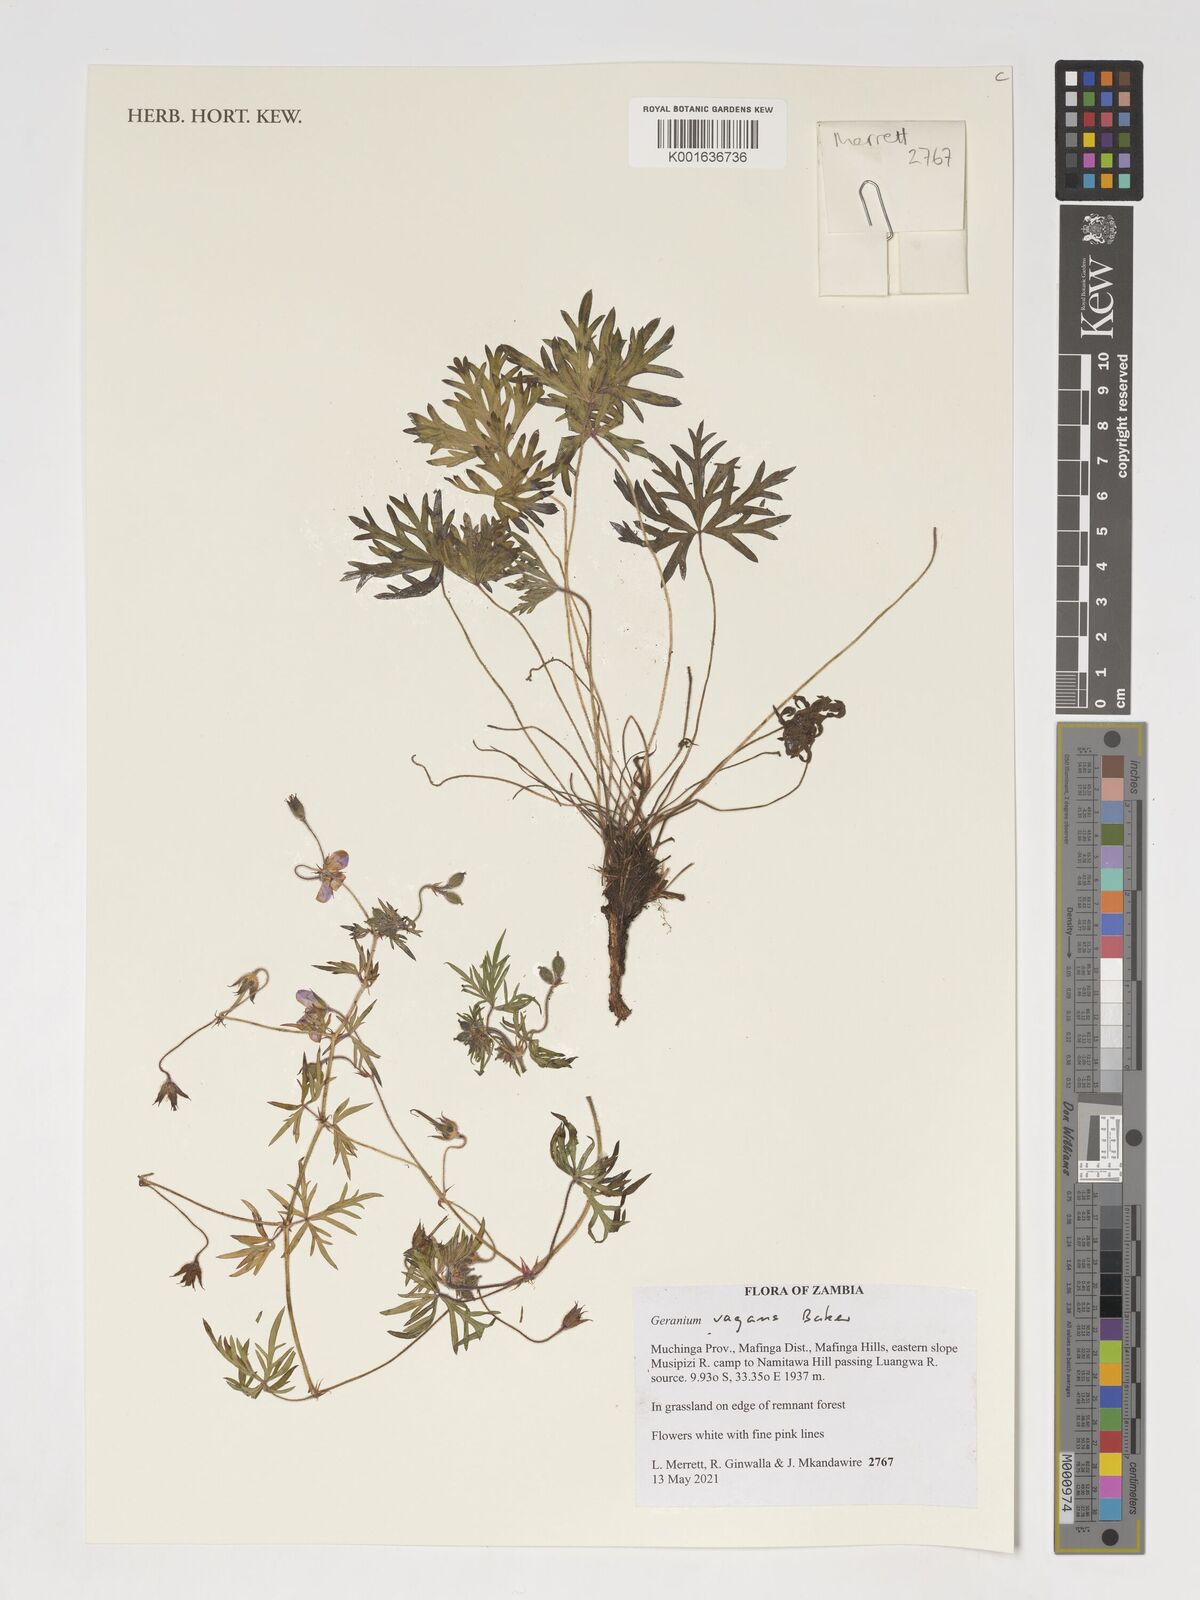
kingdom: Plantae
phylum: Tracheophyta
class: Magnoliopsida
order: Geraniales
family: Geraniaceae
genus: Geranium
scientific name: Geranium vagans
